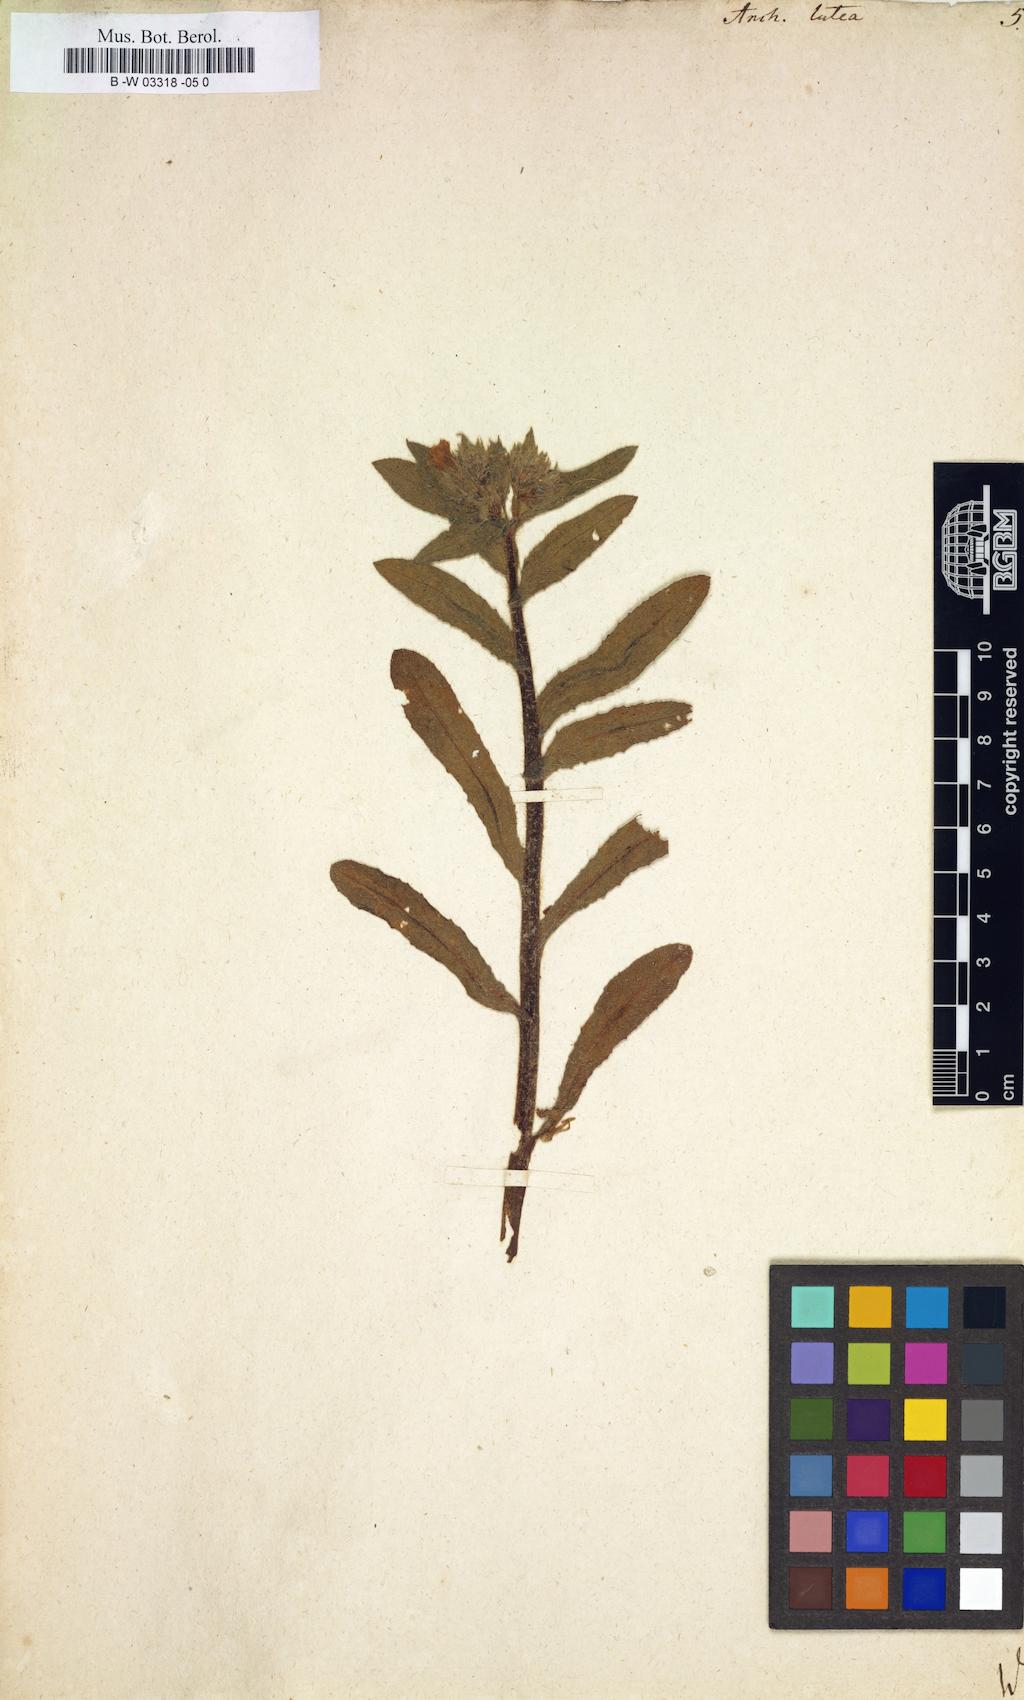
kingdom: Plantae
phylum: Tracheophyta
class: Magnoliopsida
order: Boraginales
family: Boraginaceae
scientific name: Boraginaceae
